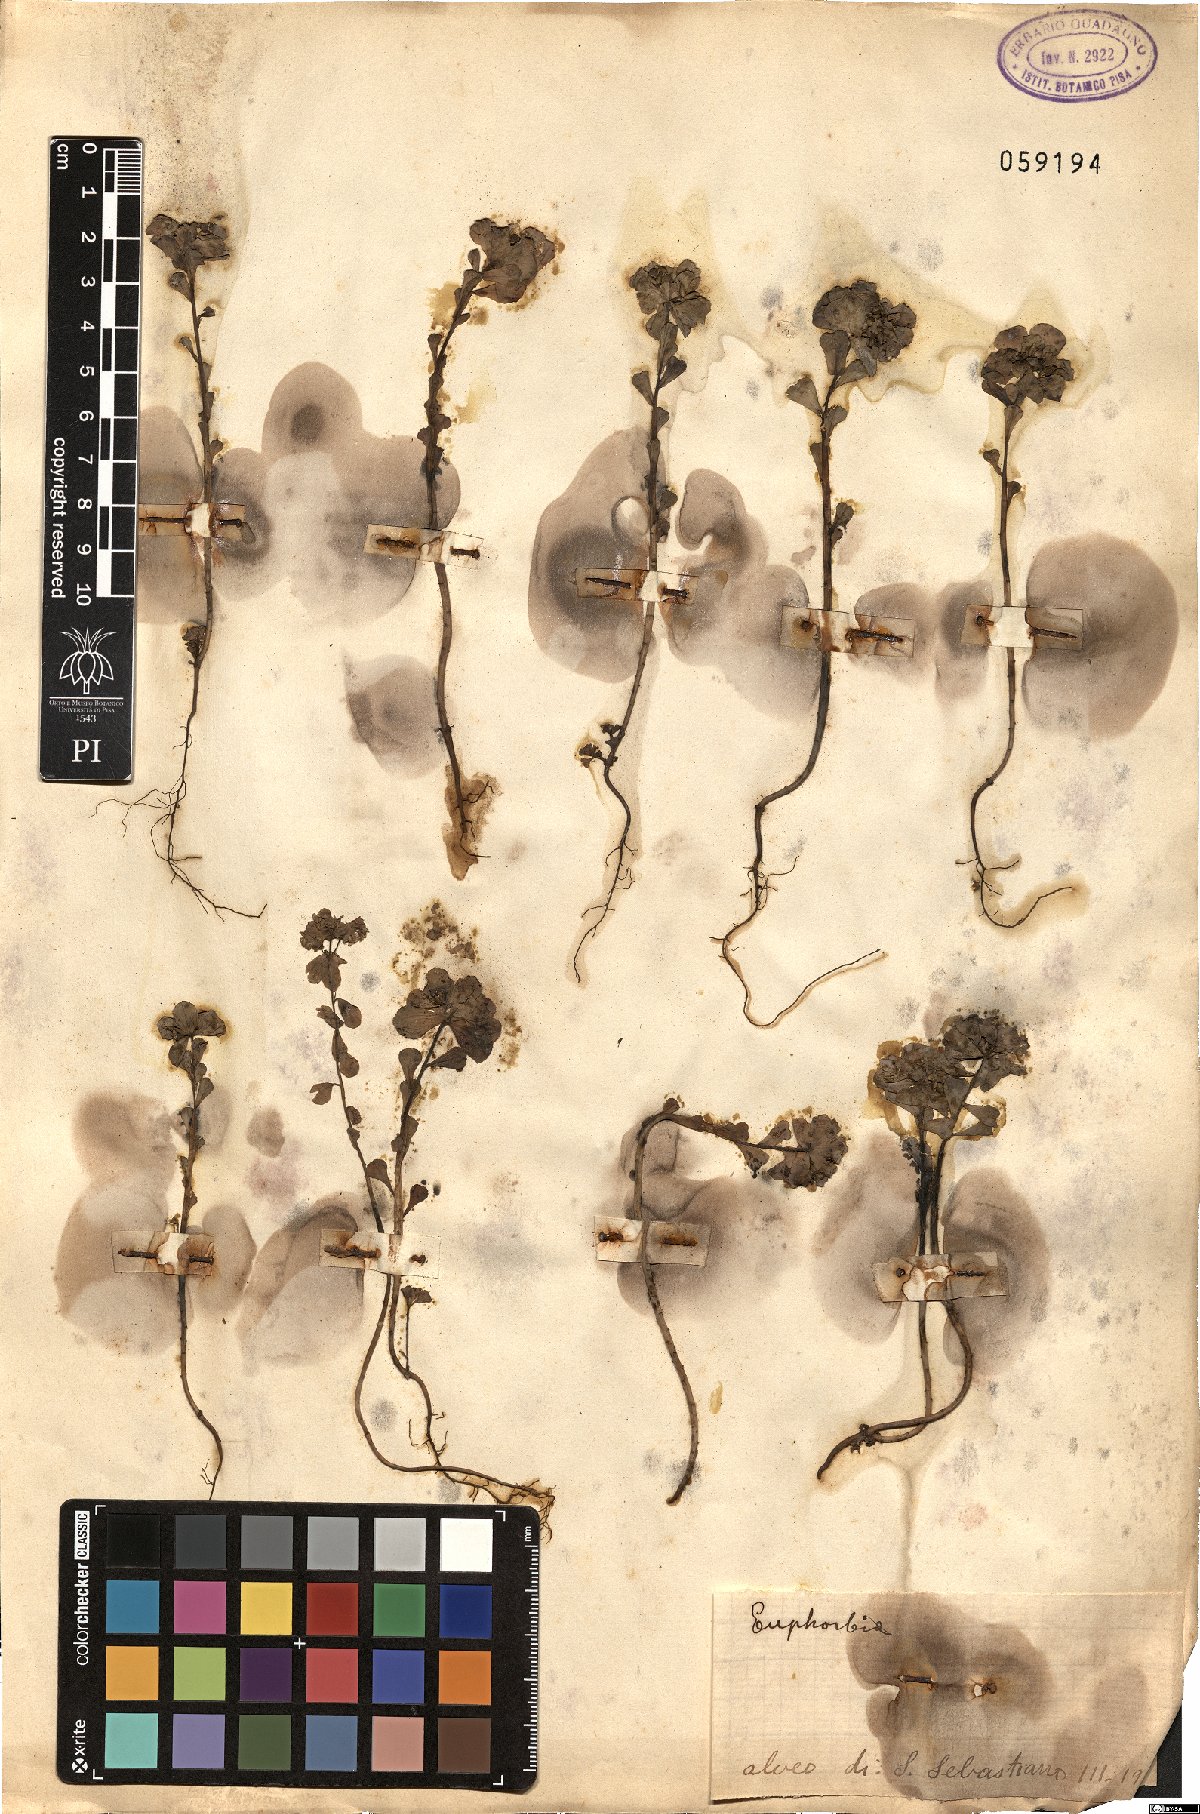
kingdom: Plantae
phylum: Tracheophyta
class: Magnoliopsida
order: Malpighiales
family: Euphorbiaceae
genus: Euphorbia
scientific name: Euphorbia
